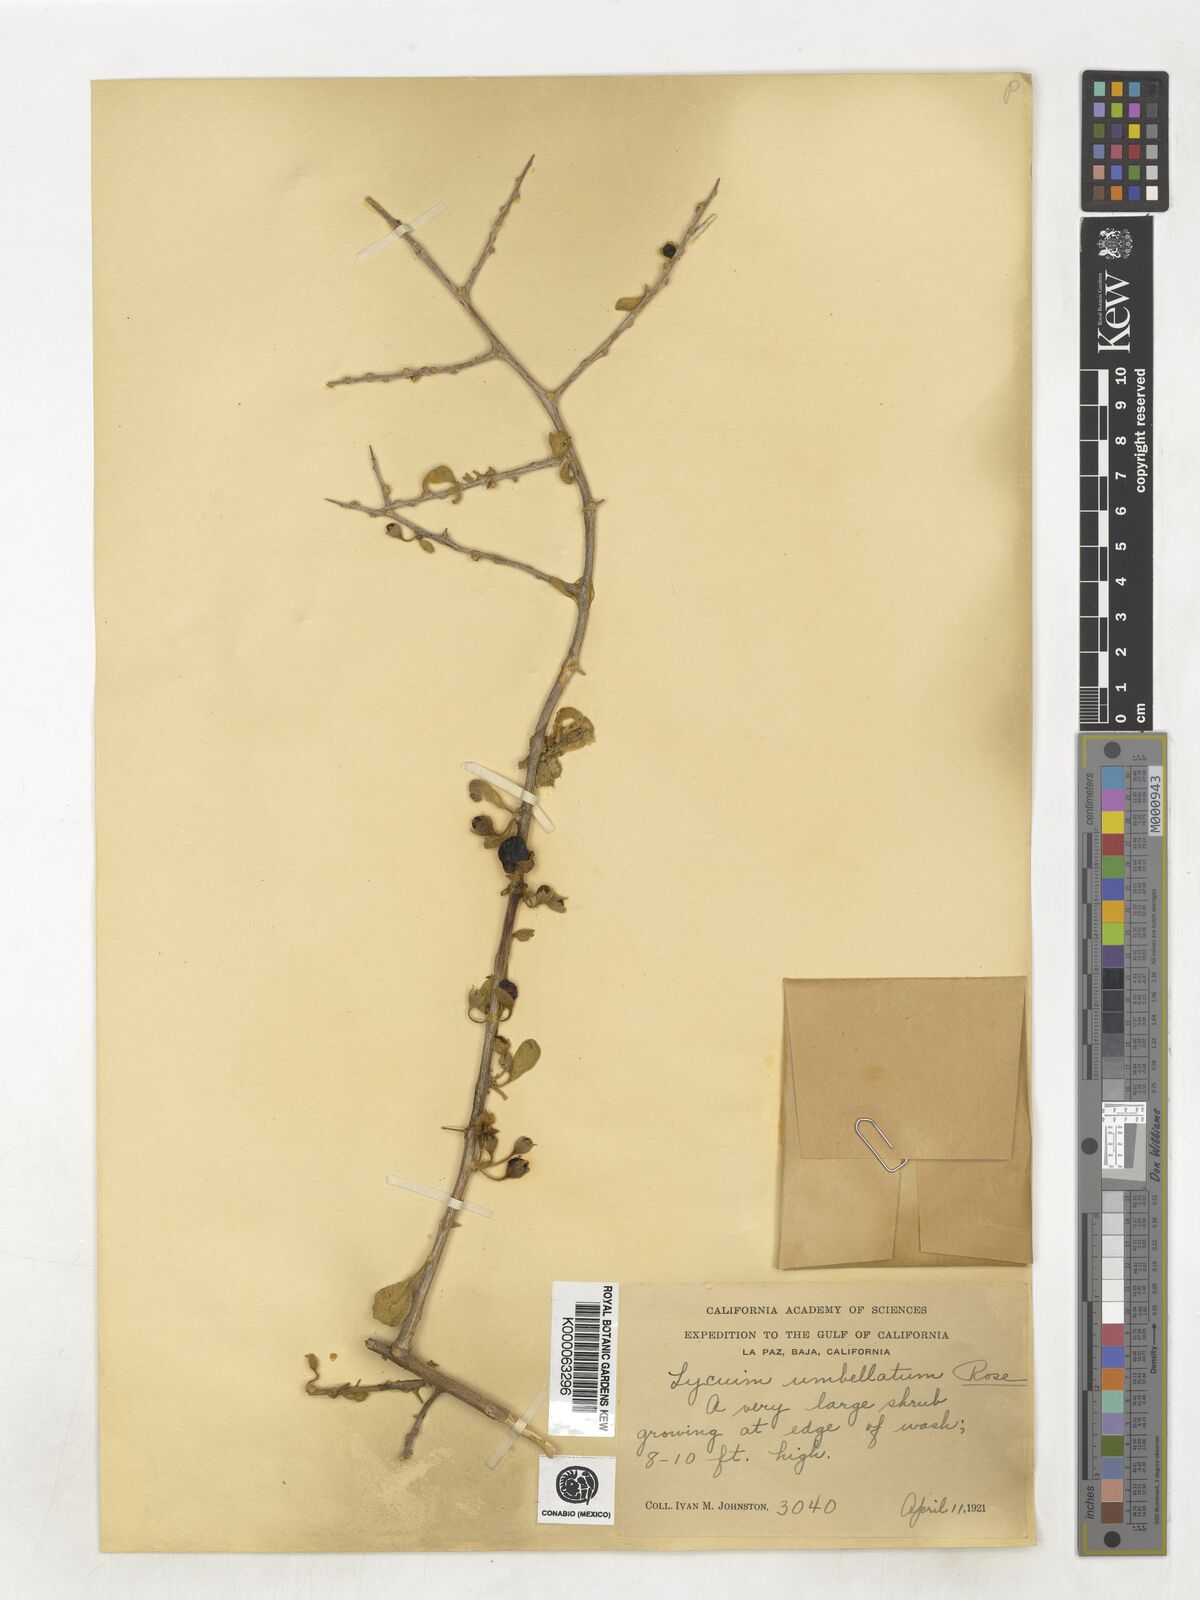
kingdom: Plantae
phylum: Tracheophyta
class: Magnoliopsida
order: Solanales
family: Solanaceae
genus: Lycium
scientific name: Lycium fremontii
